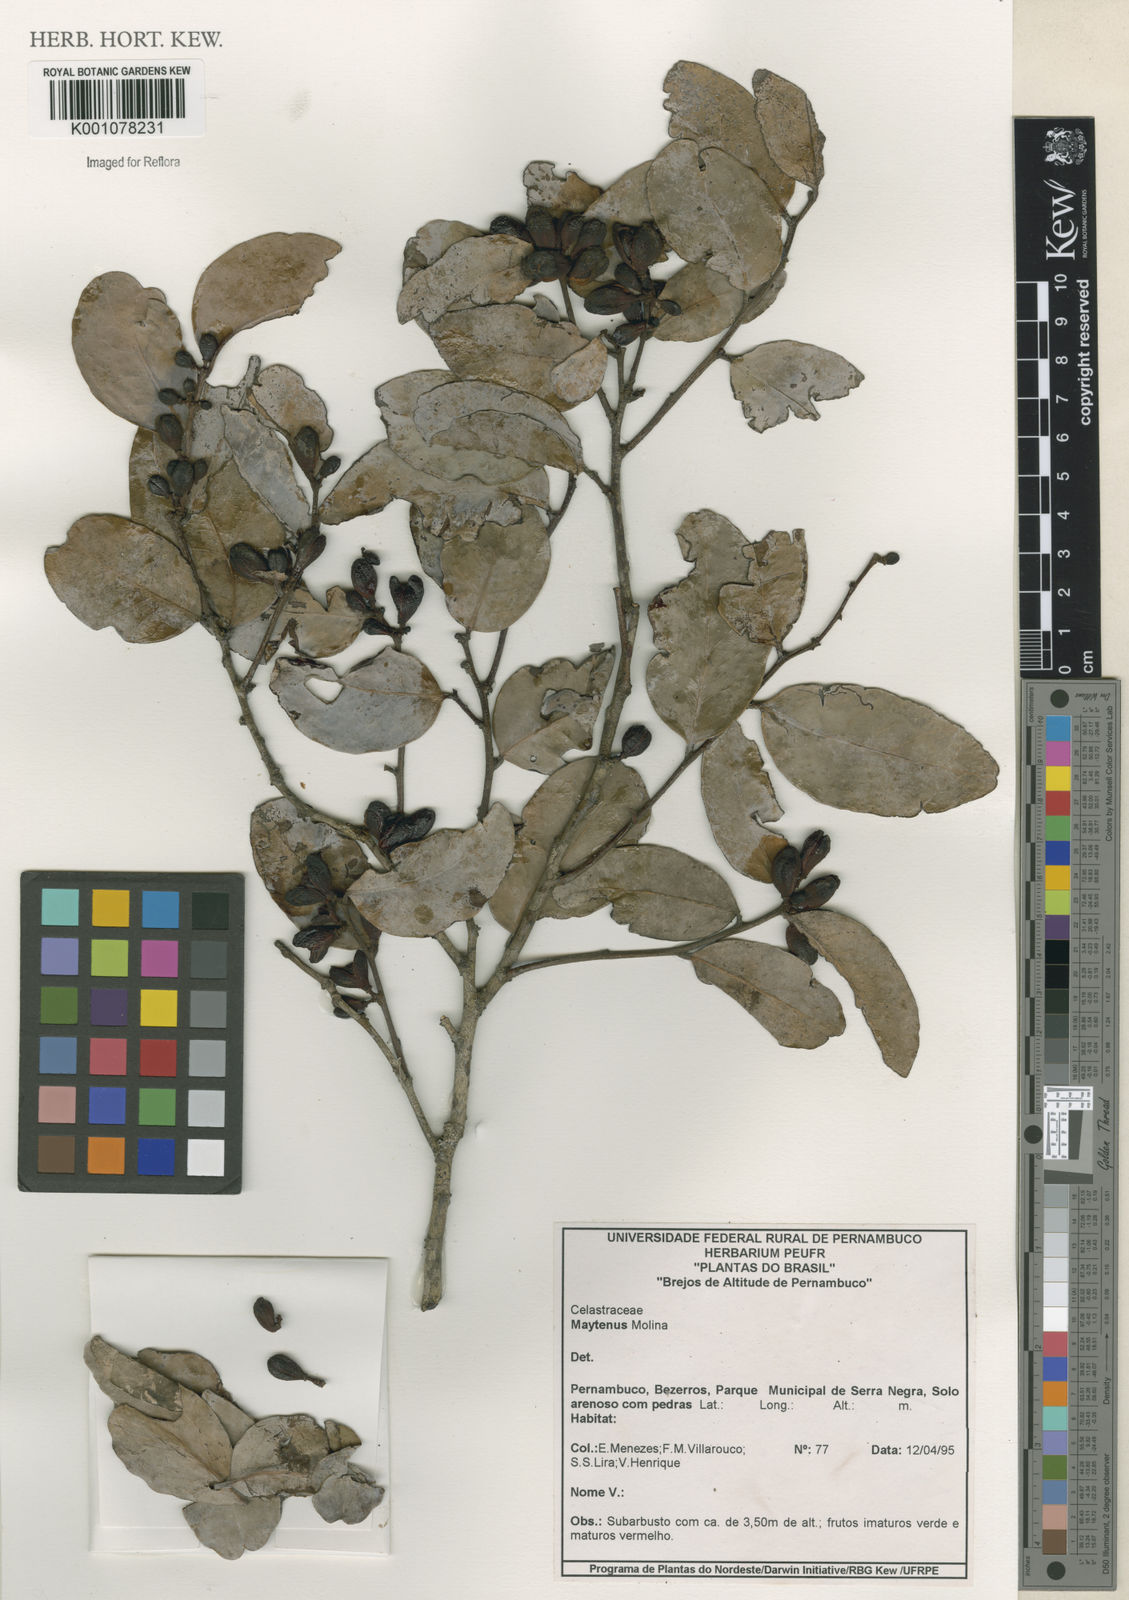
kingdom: Plantae
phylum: Tracheophyta
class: Magnoliopsida
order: Celastrales
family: Celastraceae
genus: Maytenus
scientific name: Maytenus
